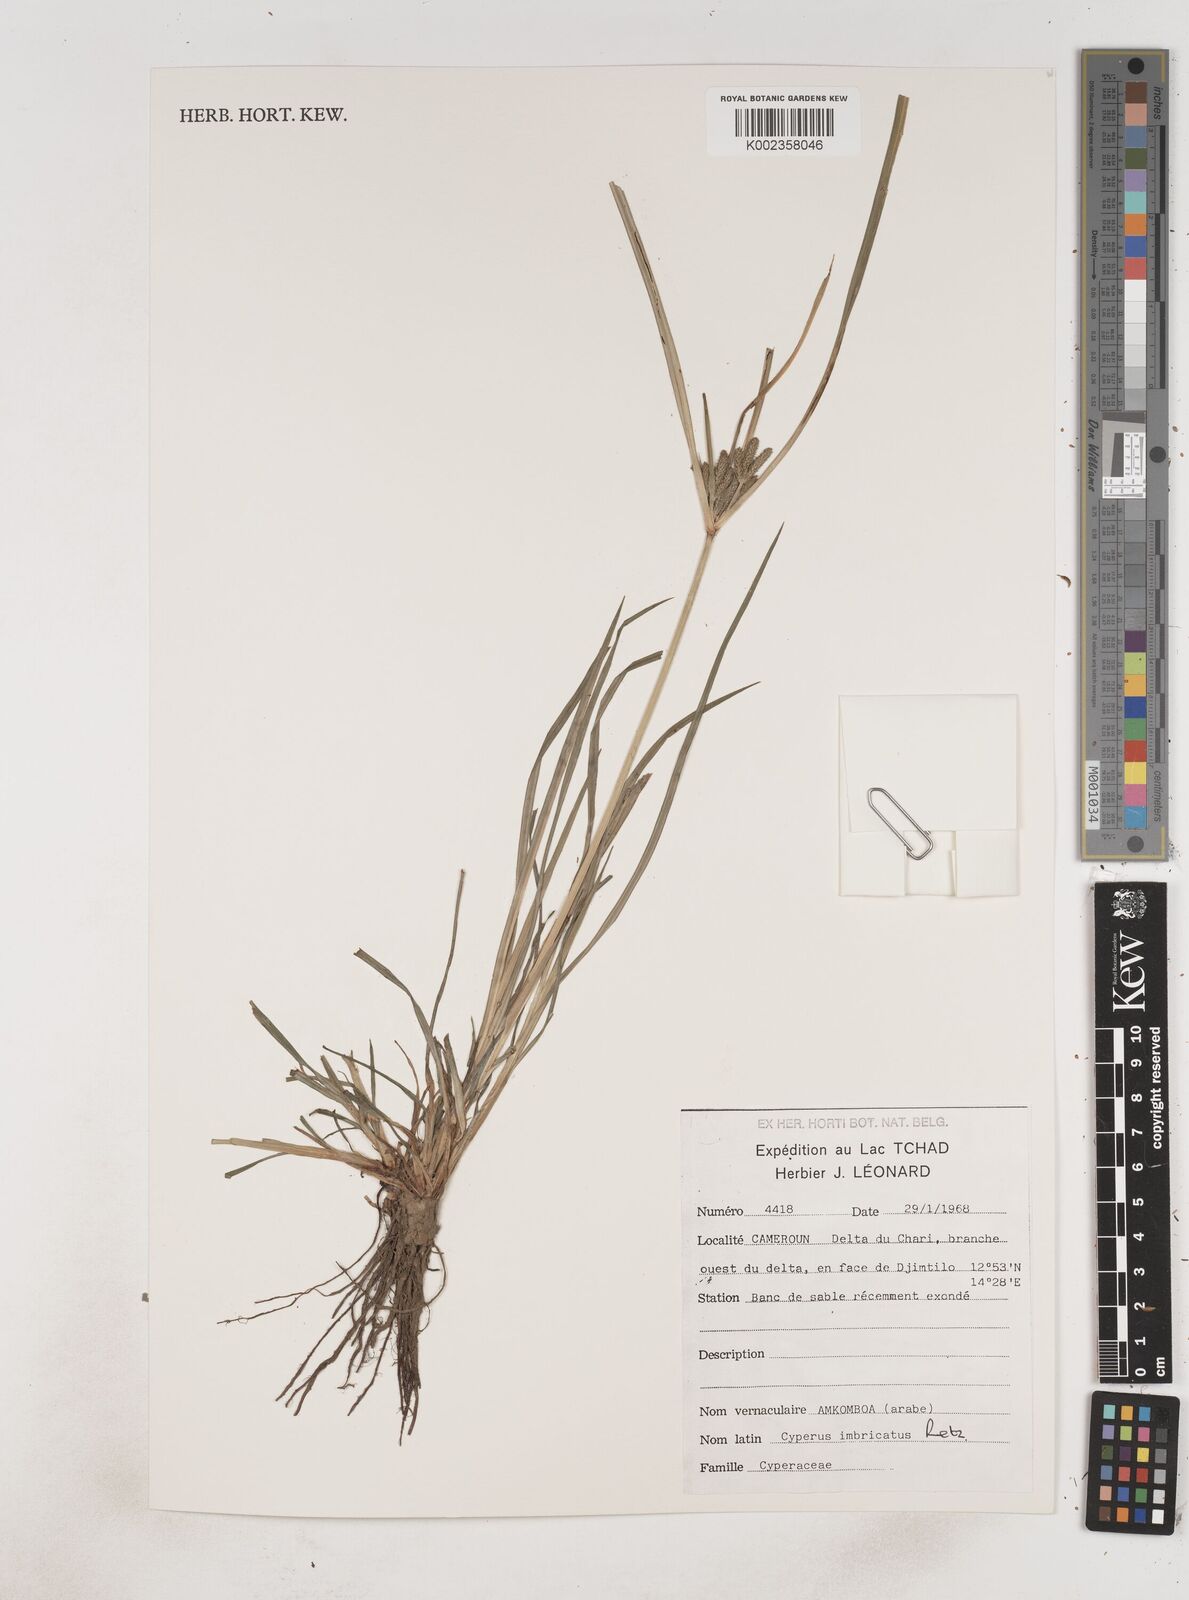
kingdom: Plantae
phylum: Tracheophyta
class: Liliopsida
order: Poales
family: Cyperaceae
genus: Cyperus
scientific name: Cyperus imbricatus
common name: Shingle flatsedge
